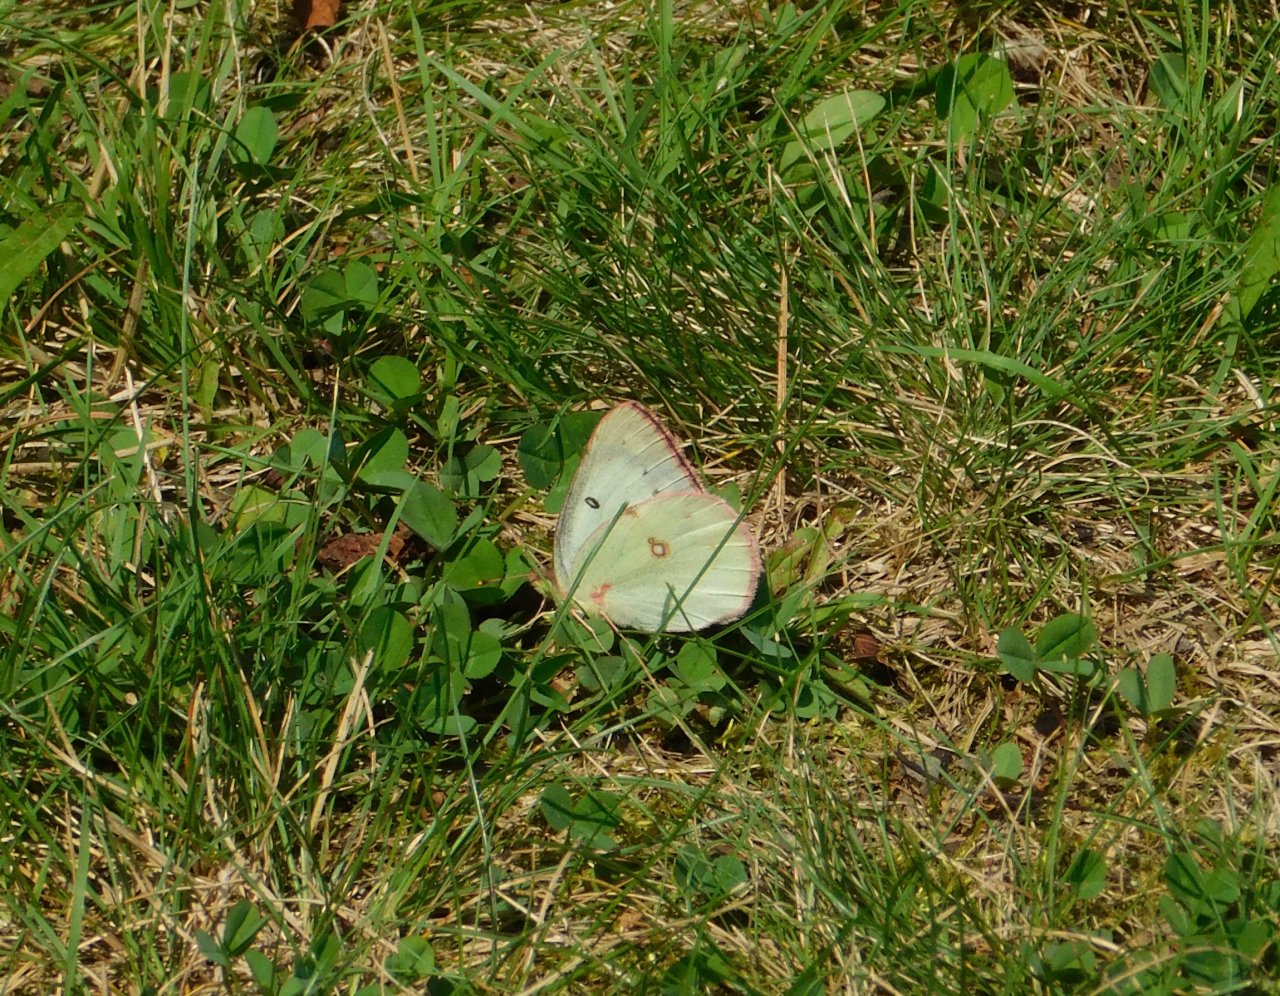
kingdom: Animalia
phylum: Arthropoda
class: Insecta
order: Lepidoptera
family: Pieridae
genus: Colias
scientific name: Colias philodice
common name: Clouded Sulphur
